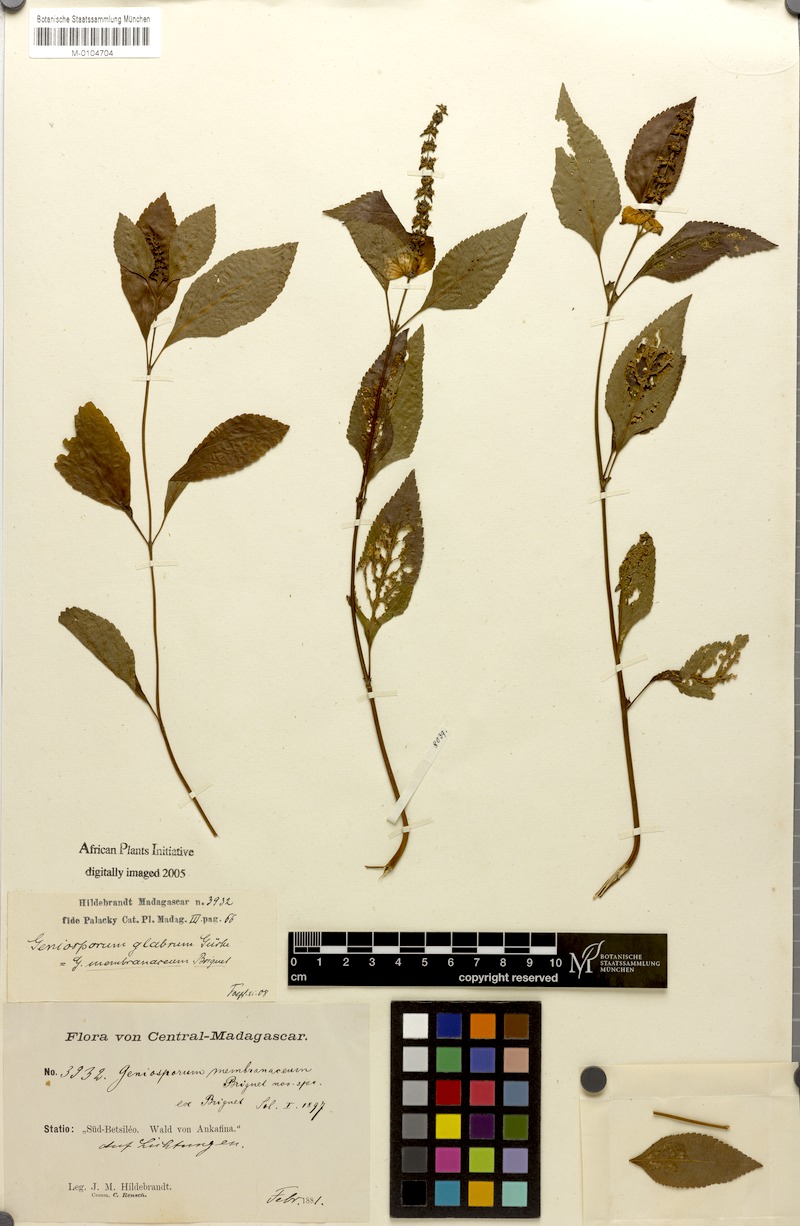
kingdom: Plantae
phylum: Tracheophyta
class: Magnoliopsida
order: Lamiales
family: Lamiaceae
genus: Platostoma
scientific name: Platostoma madagascariense
